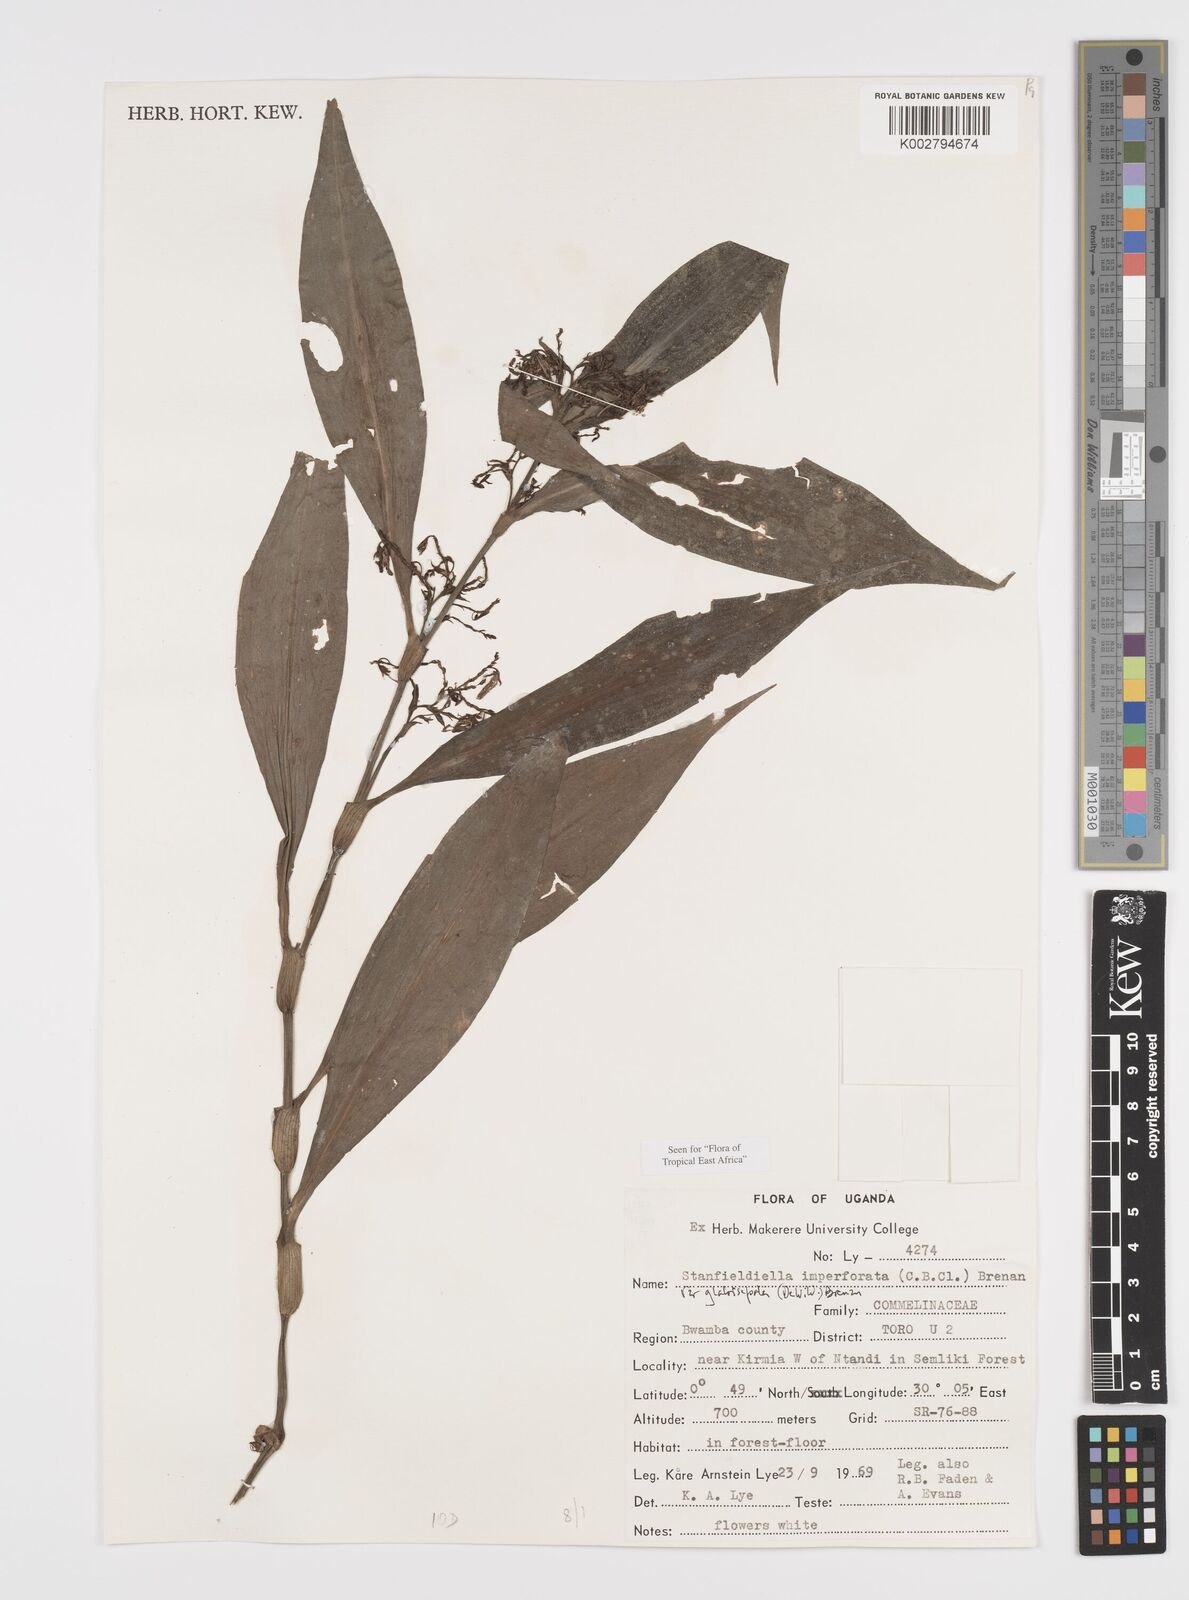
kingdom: Plantae
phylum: Tracheophyta
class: Liliopsida
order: Commelinales
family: Commelinaceae
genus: Stanfieldiella
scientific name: Stanfieldiella imperforata
